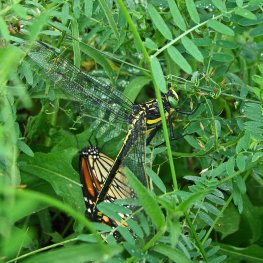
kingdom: Animalia
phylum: Arthropoda
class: Insecta
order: Lepidoptera
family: Nymphalidae
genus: Danaus
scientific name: Danaus plexippus
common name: Monarch
